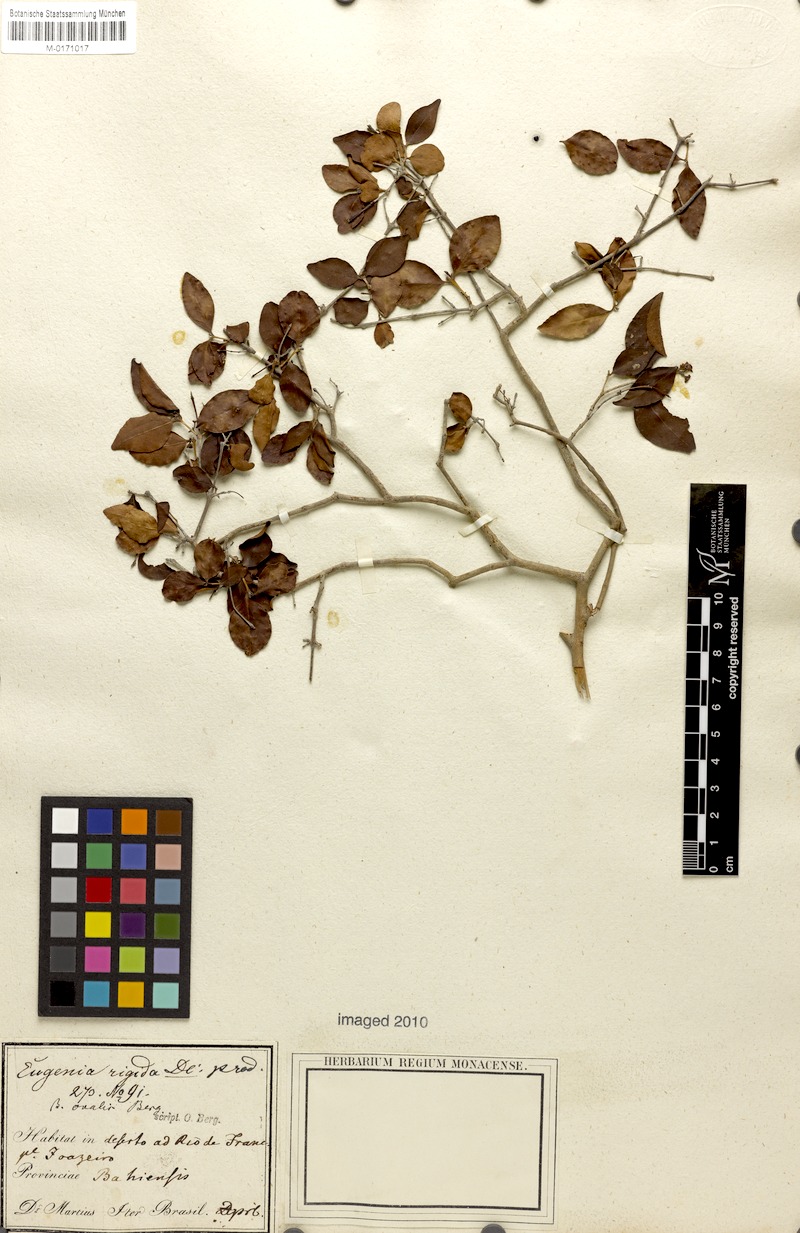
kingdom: Plantae
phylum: Tracheophyta
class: Magnoliopsida
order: Myrtales
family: Myrtaceae
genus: Eugenia
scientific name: Eugenia rigida
